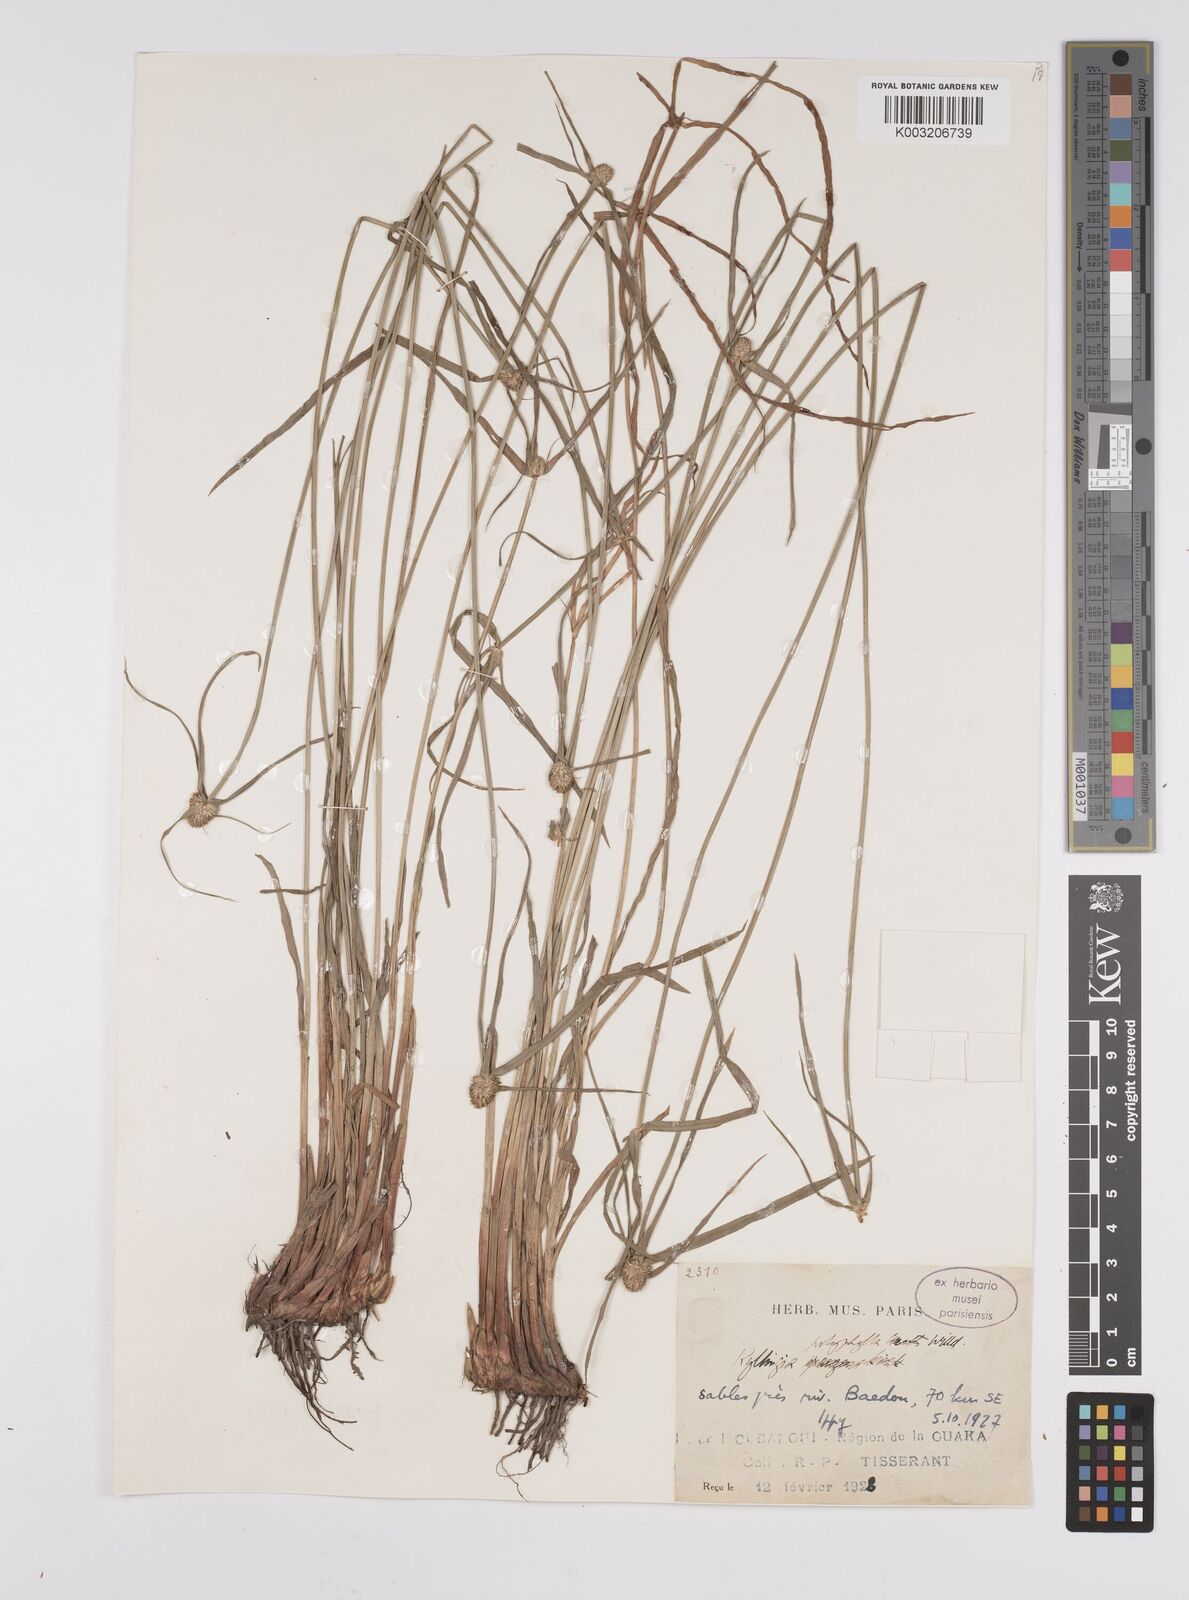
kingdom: Plantae
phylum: Tracheophyta
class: Liliopsida
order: Poales
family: Cyperaceae
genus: Cyperus
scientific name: Cyperus
